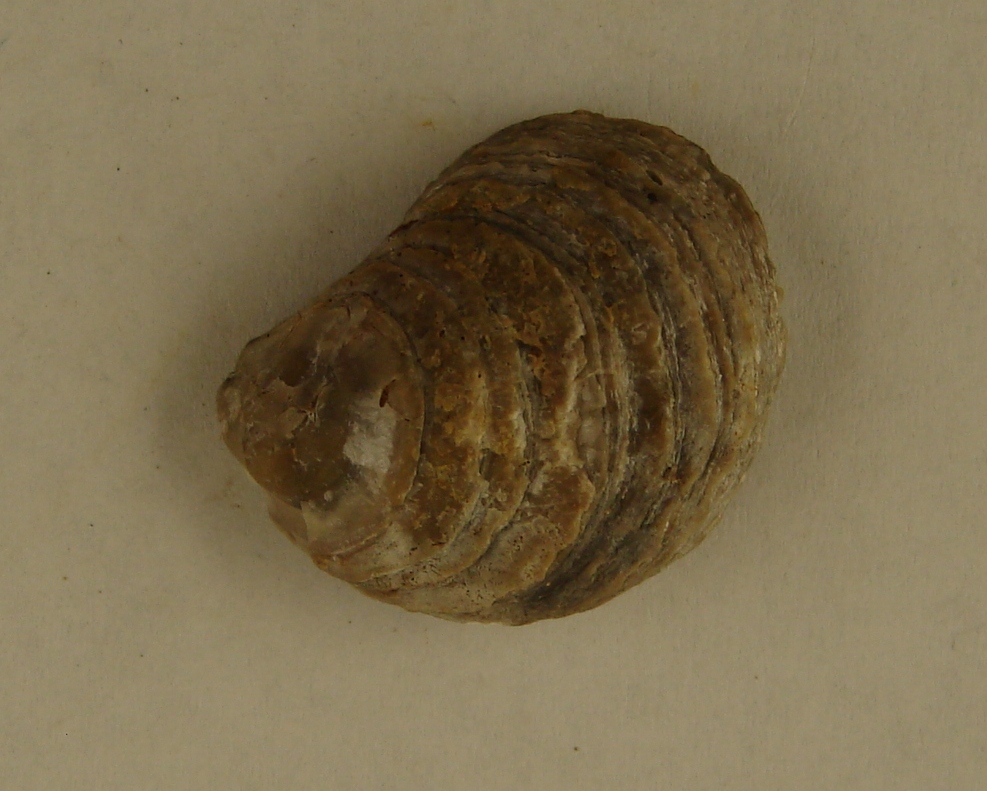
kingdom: Animalia
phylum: Mollusca
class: Bivalvia
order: Ostreida
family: Flemingostreidae
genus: Liostrea
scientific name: Liostrea hisingeri
